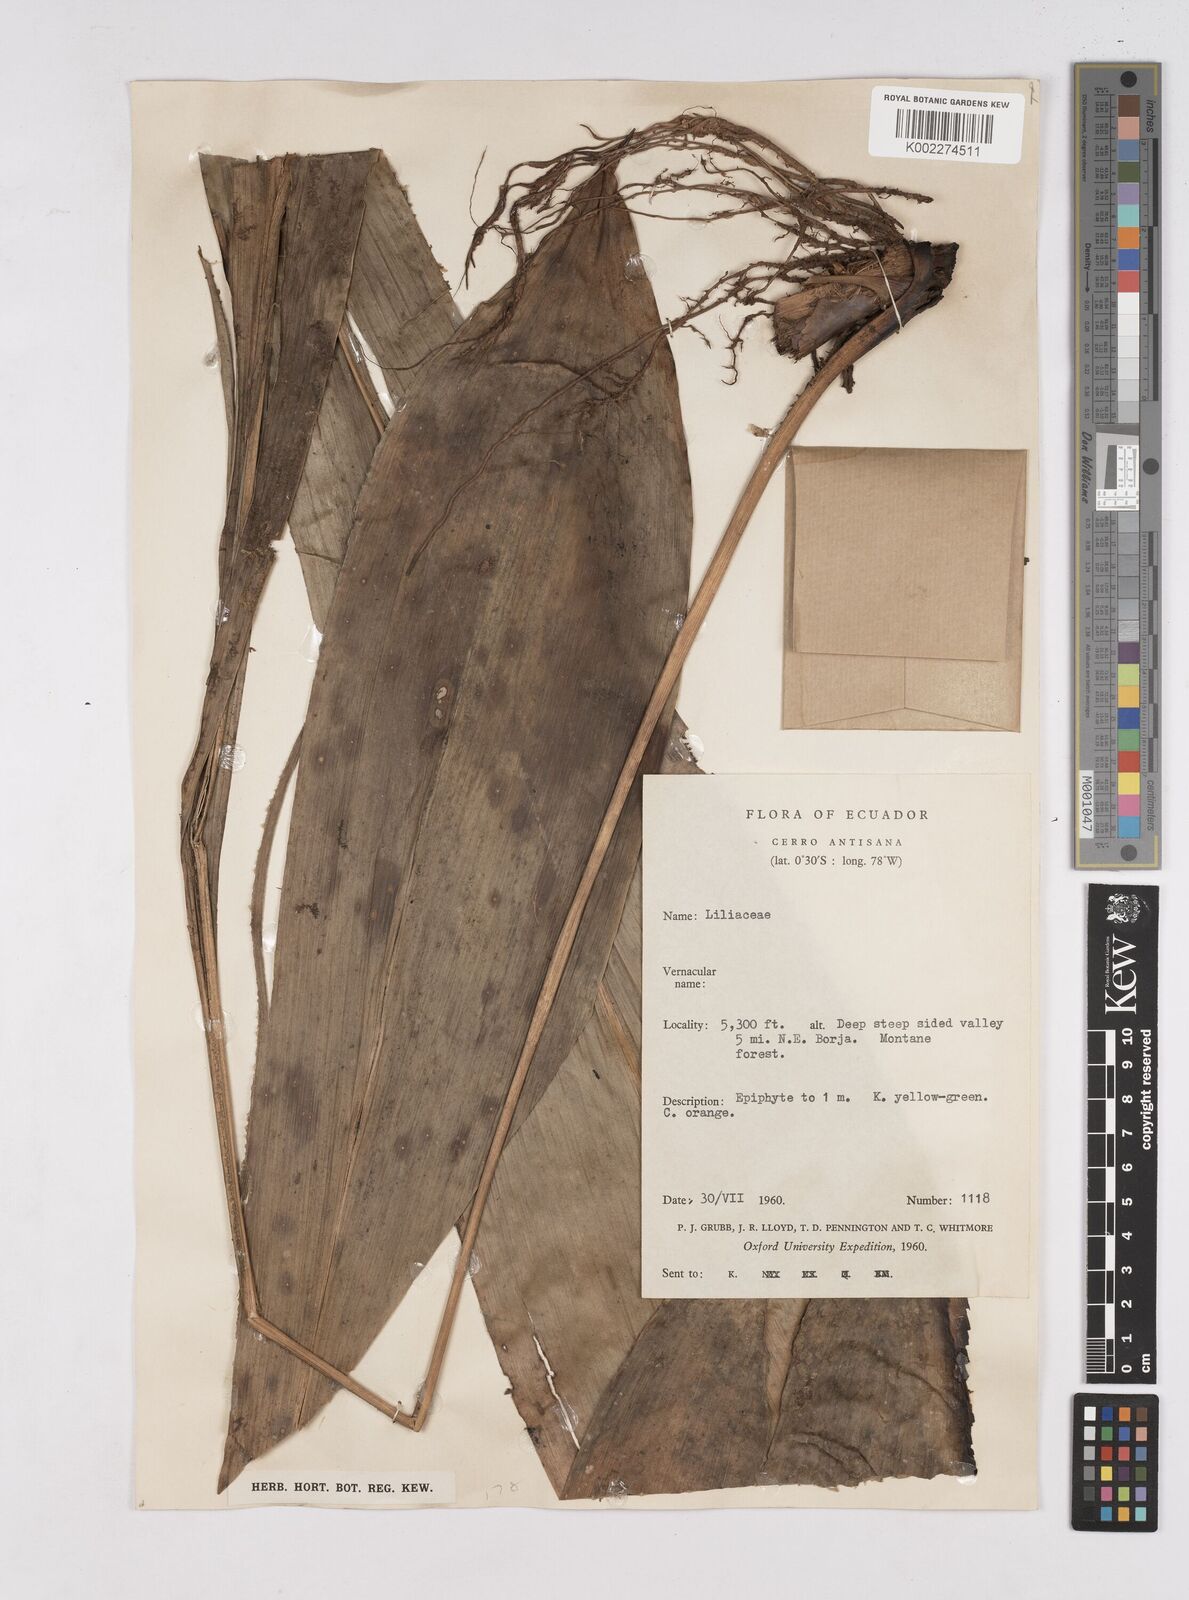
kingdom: Plantae
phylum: Tracheophyta
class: Liliopsida
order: Poales
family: Bromeliaceae
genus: Pitcairnia
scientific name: Pitcairnia
